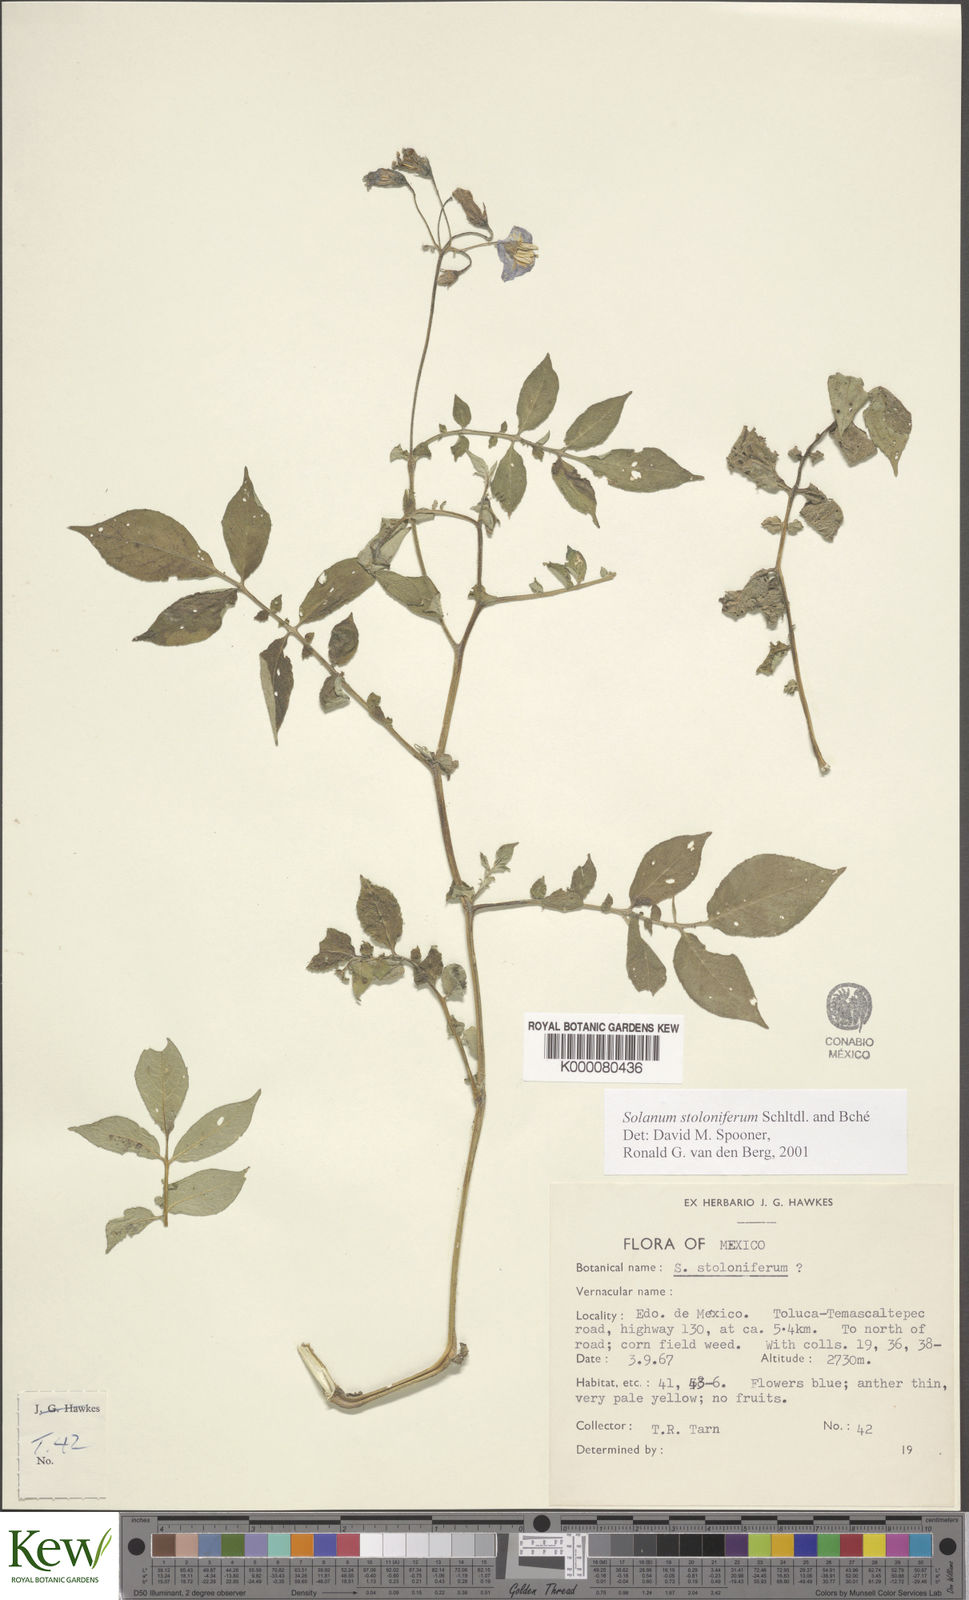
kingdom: Plantae
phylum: Tracheophyta
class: Magnoliopsida
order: Solanales
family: Solanaceae
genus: Solanum
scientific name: Solanum stoloniferum
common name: Fendler's nighshade
